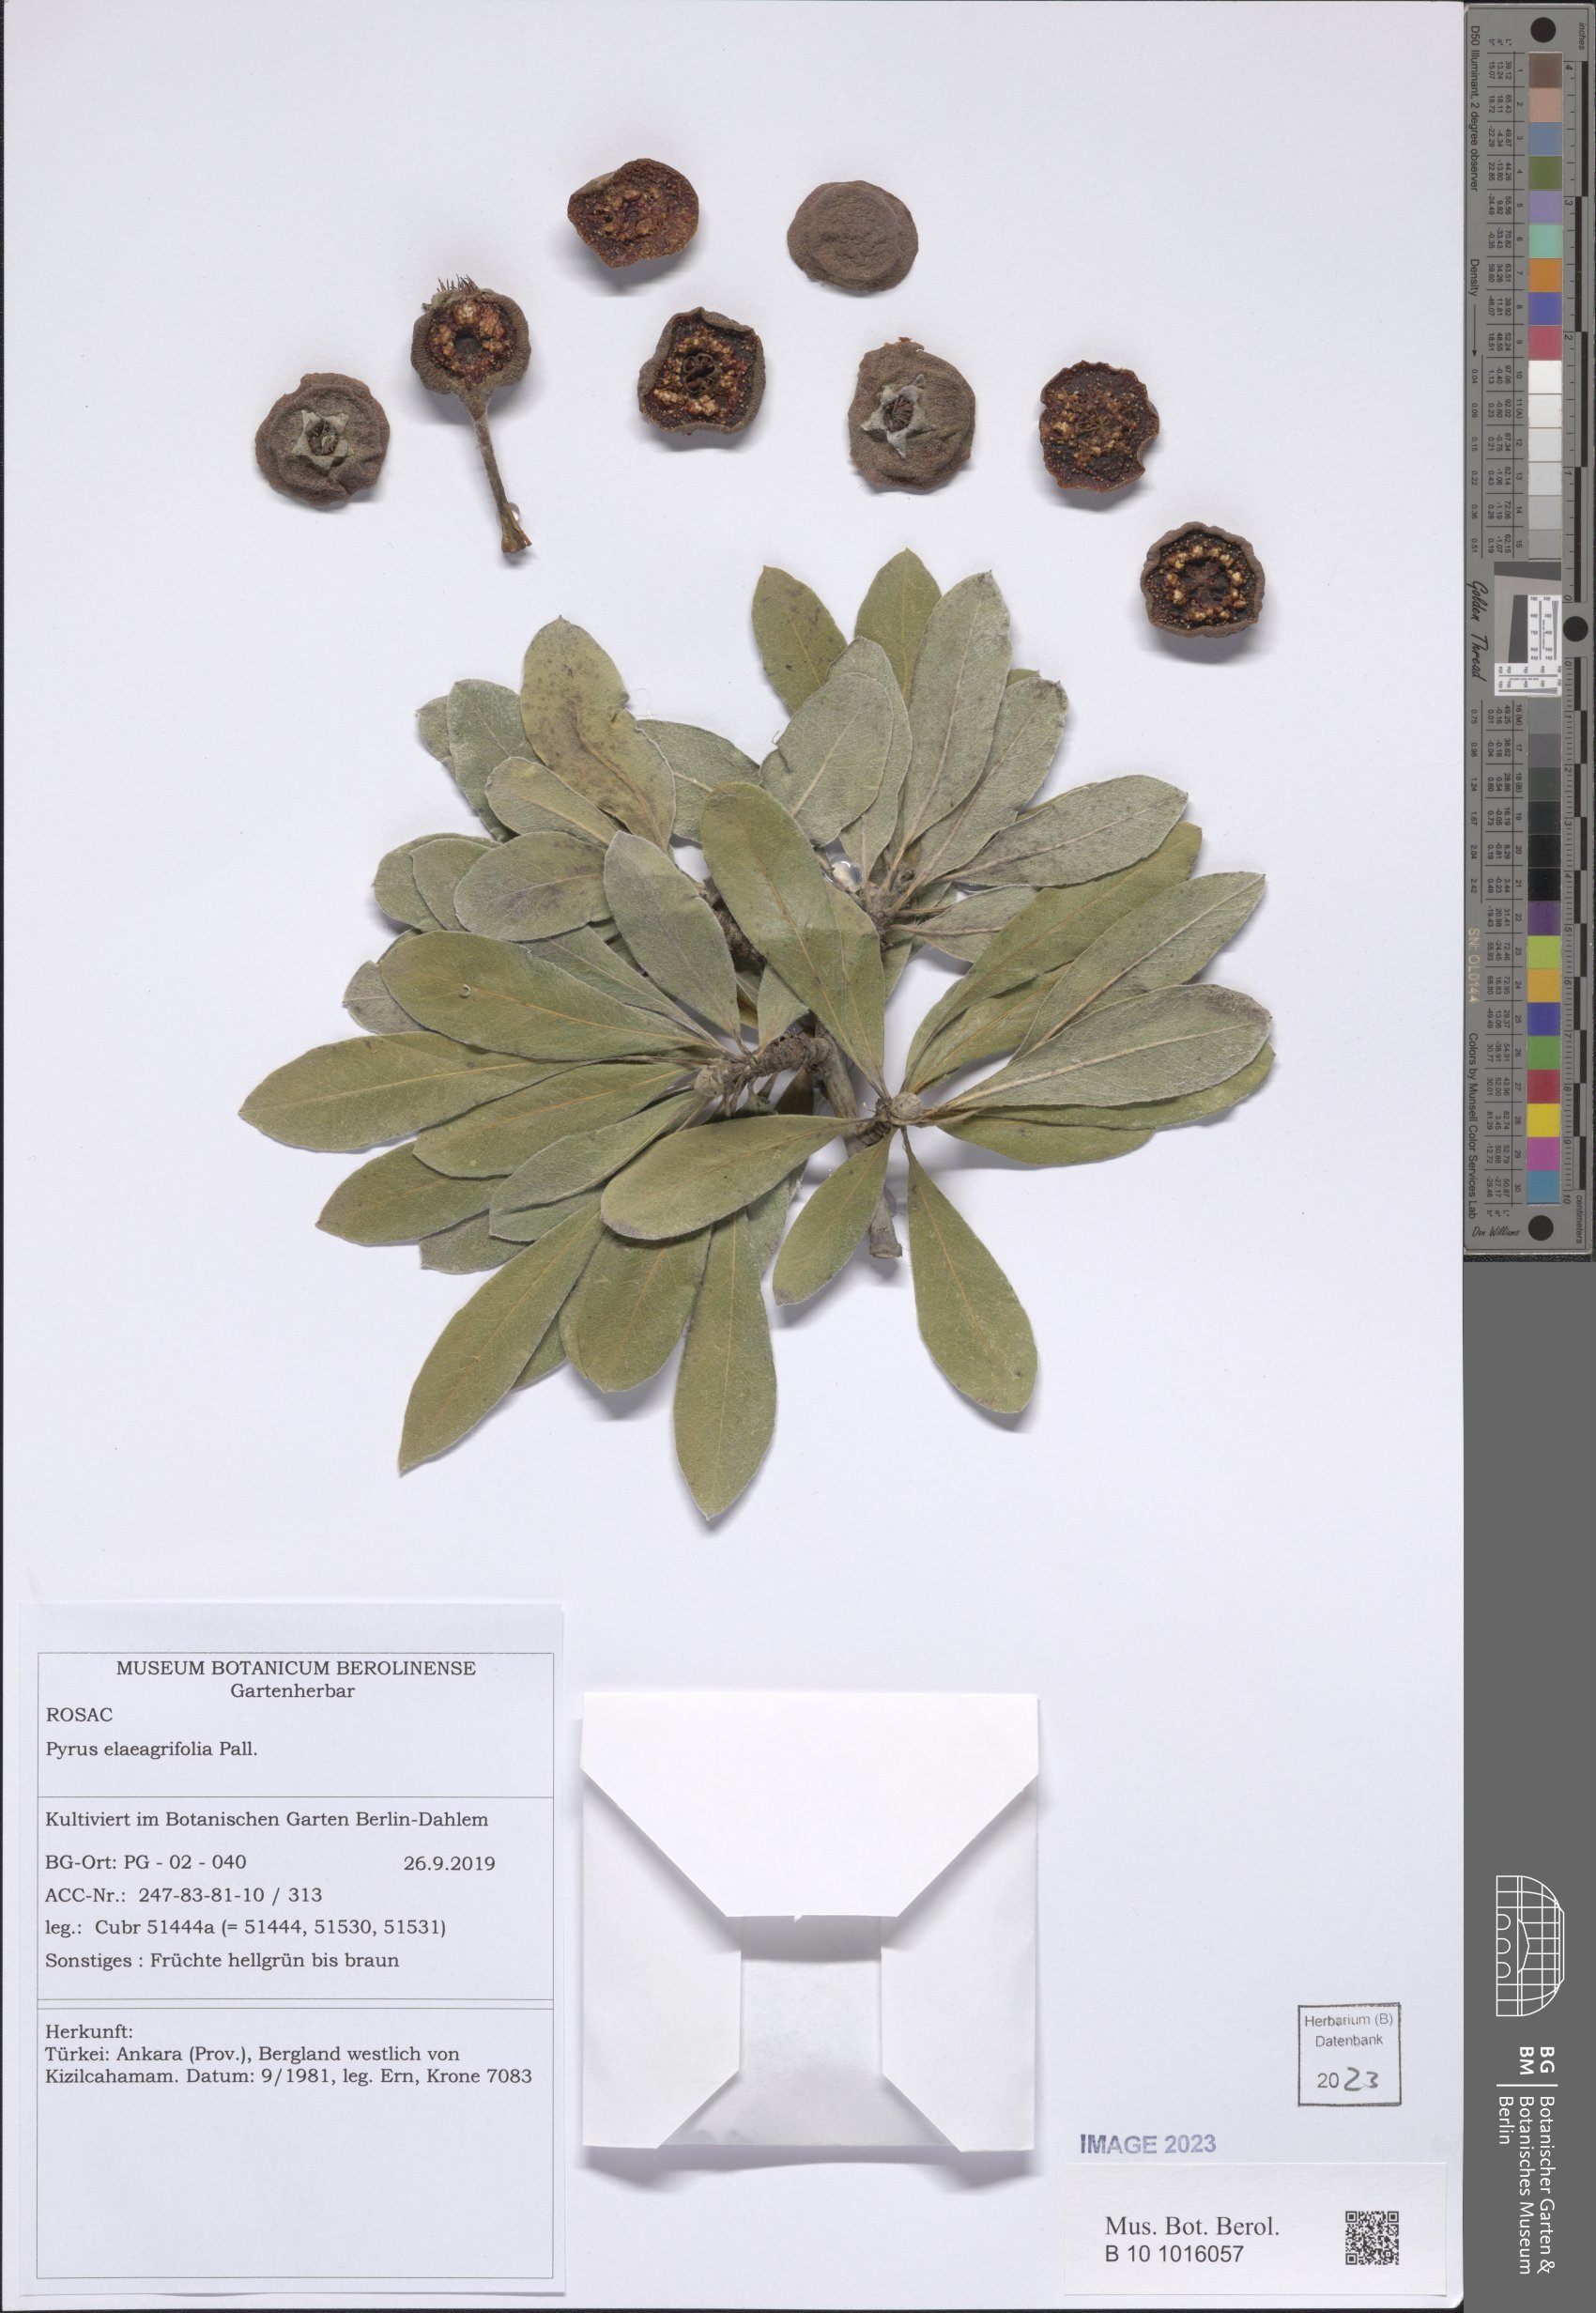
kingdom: Plantae
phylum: Tracheophyta
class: Magnoliopsida
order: Rosales
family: Rosaceae
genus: Pyrus
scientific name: Pyrus elaeagnifolia
